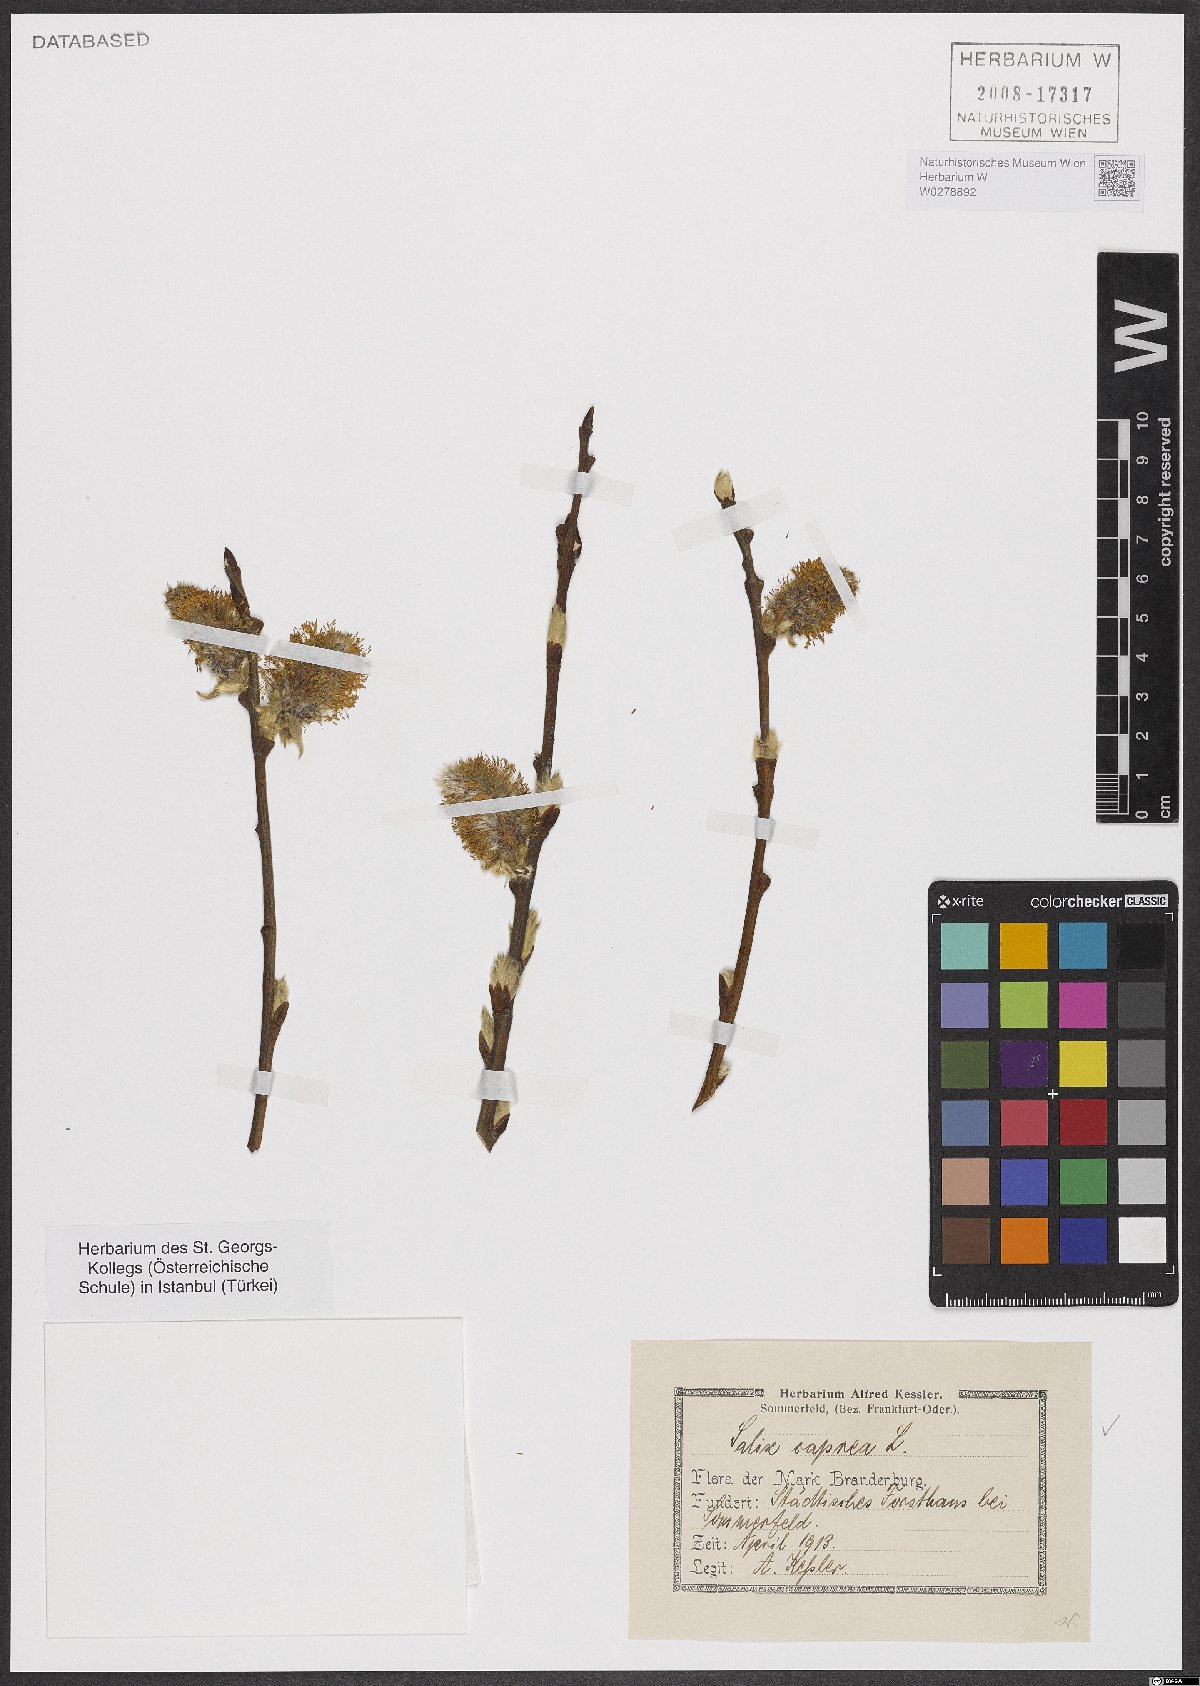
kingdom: Plantae
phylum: Tracheophyta
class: Magnoliopsida
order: Malpighiales
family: Salicaceae
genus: Salix
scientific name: Salix caprea
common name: Goat willow
